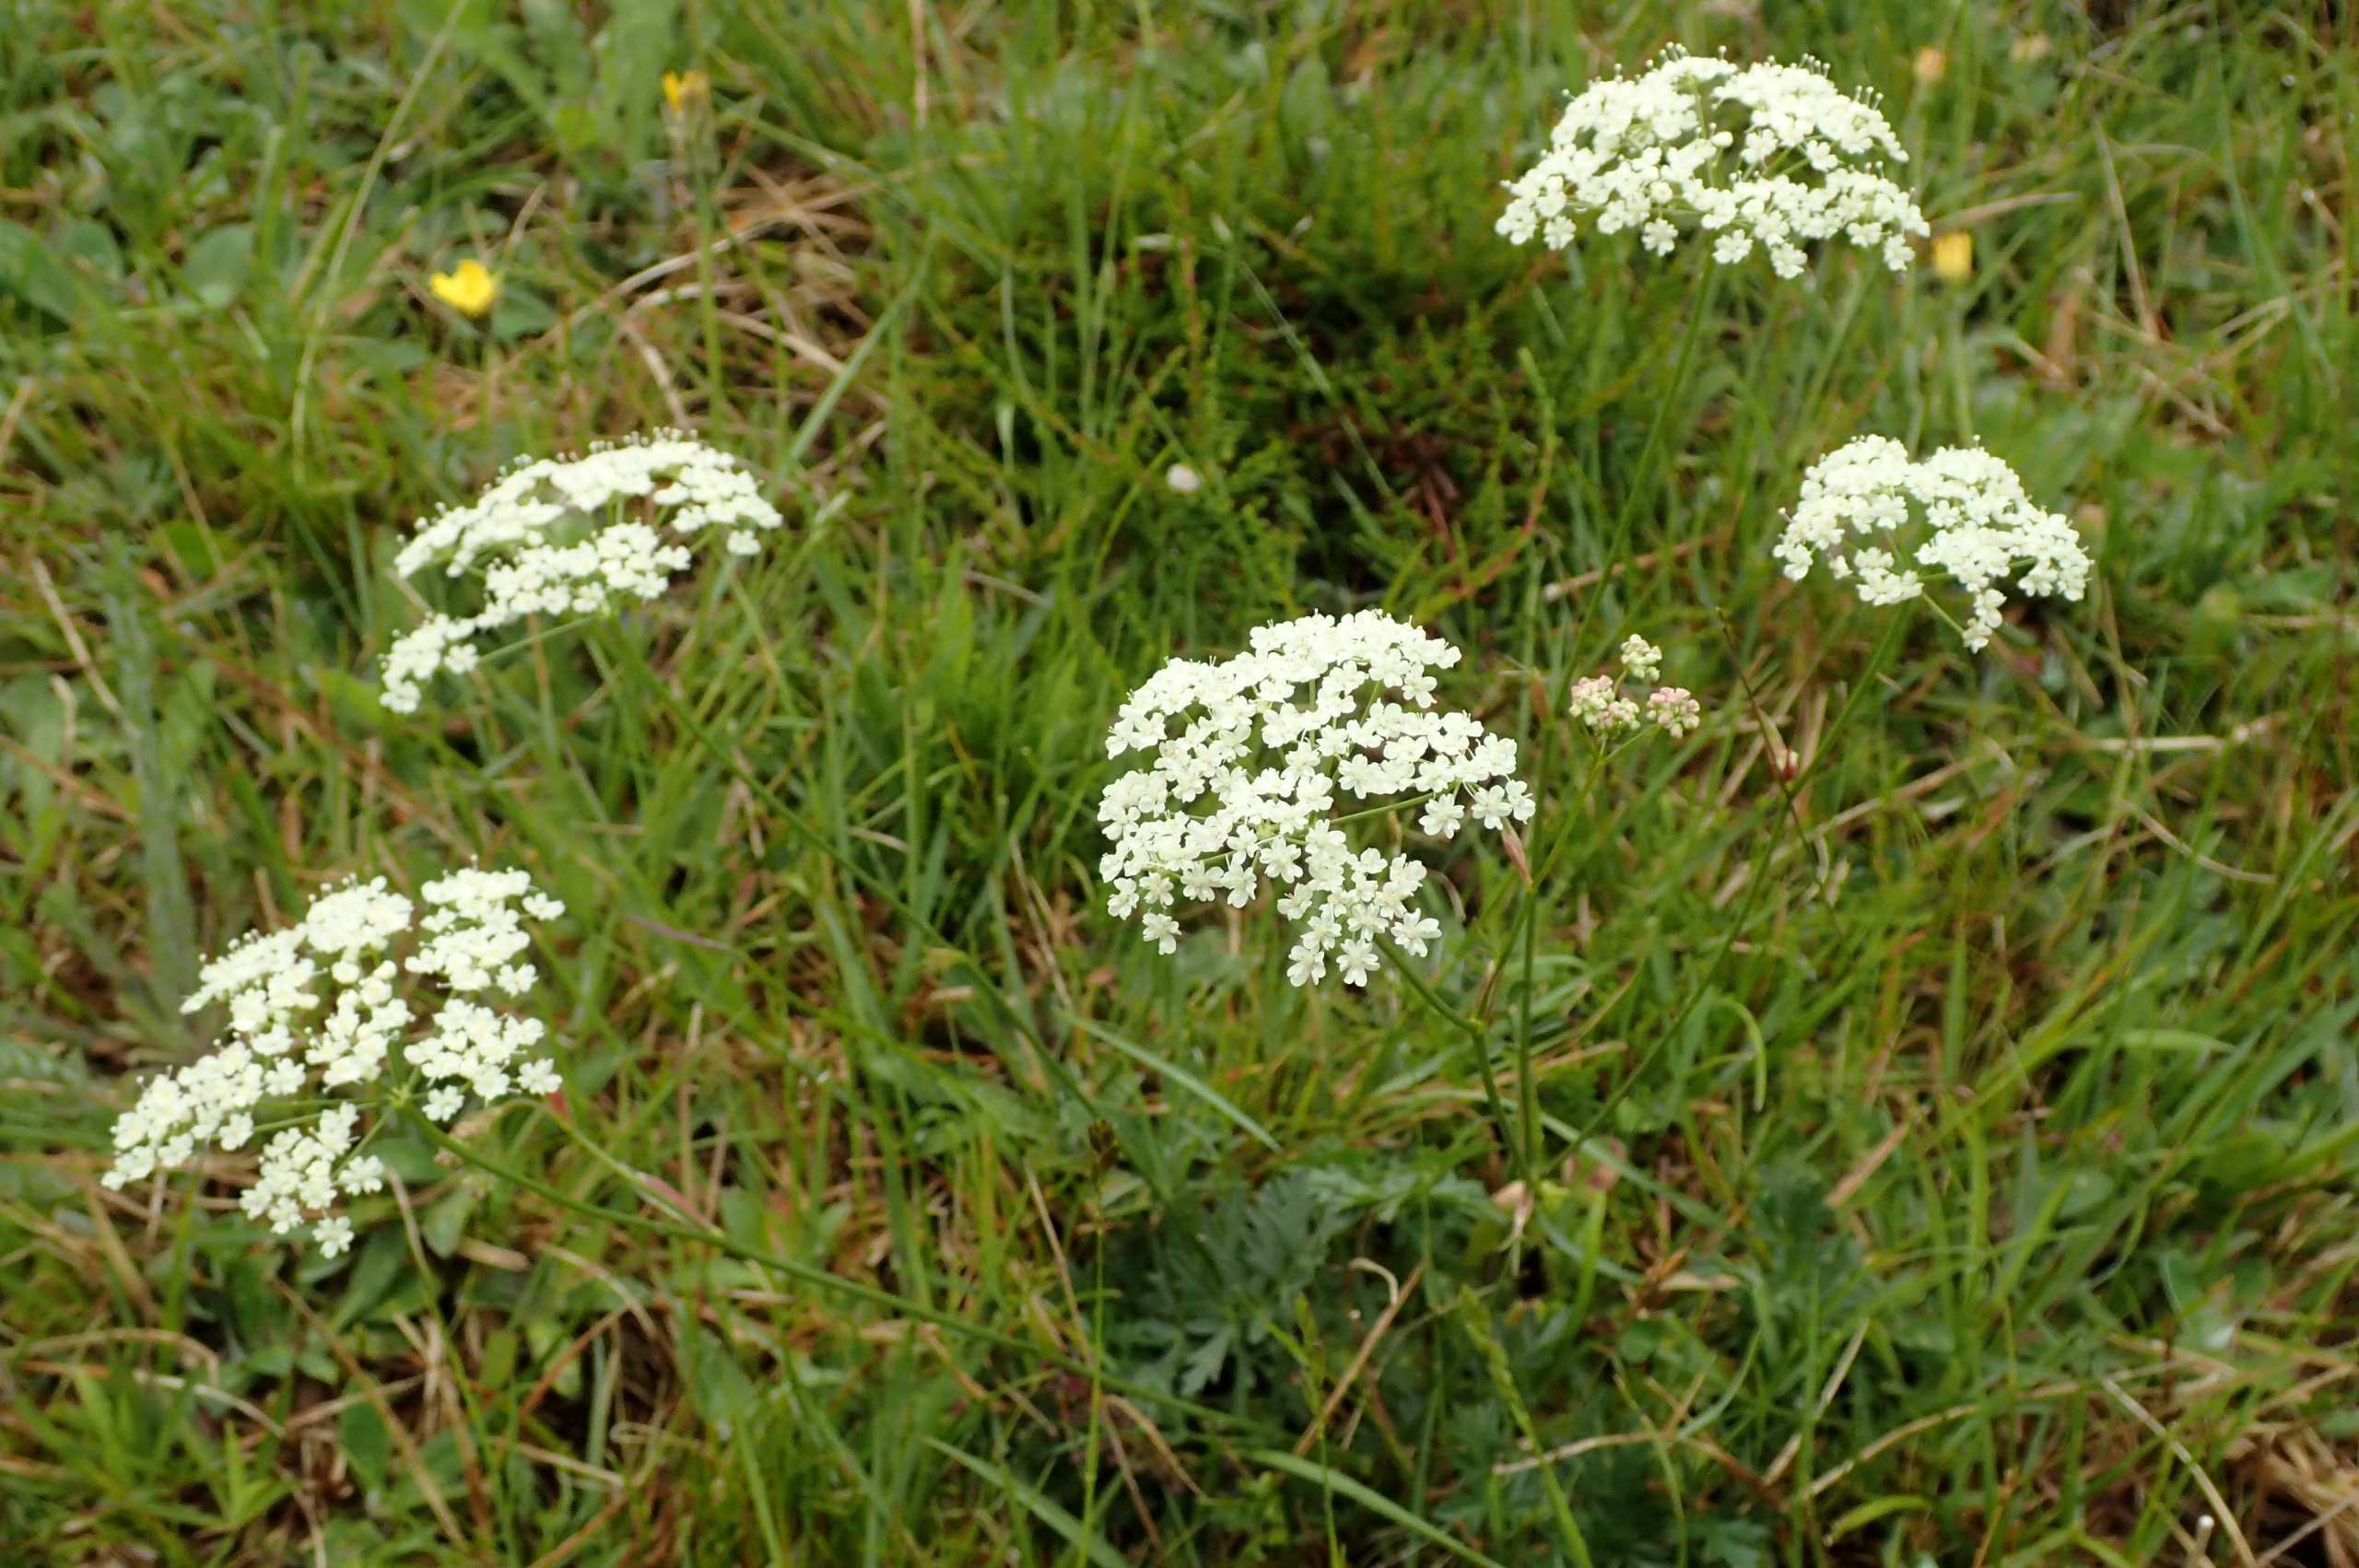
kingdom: Plantae
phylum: Tracheophyta
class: Magnoliopsida
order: Apiales
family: Apiaceae
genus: Pimpinella
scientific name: Pimpinella saxifraga
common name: Almindelig pimpinelle
